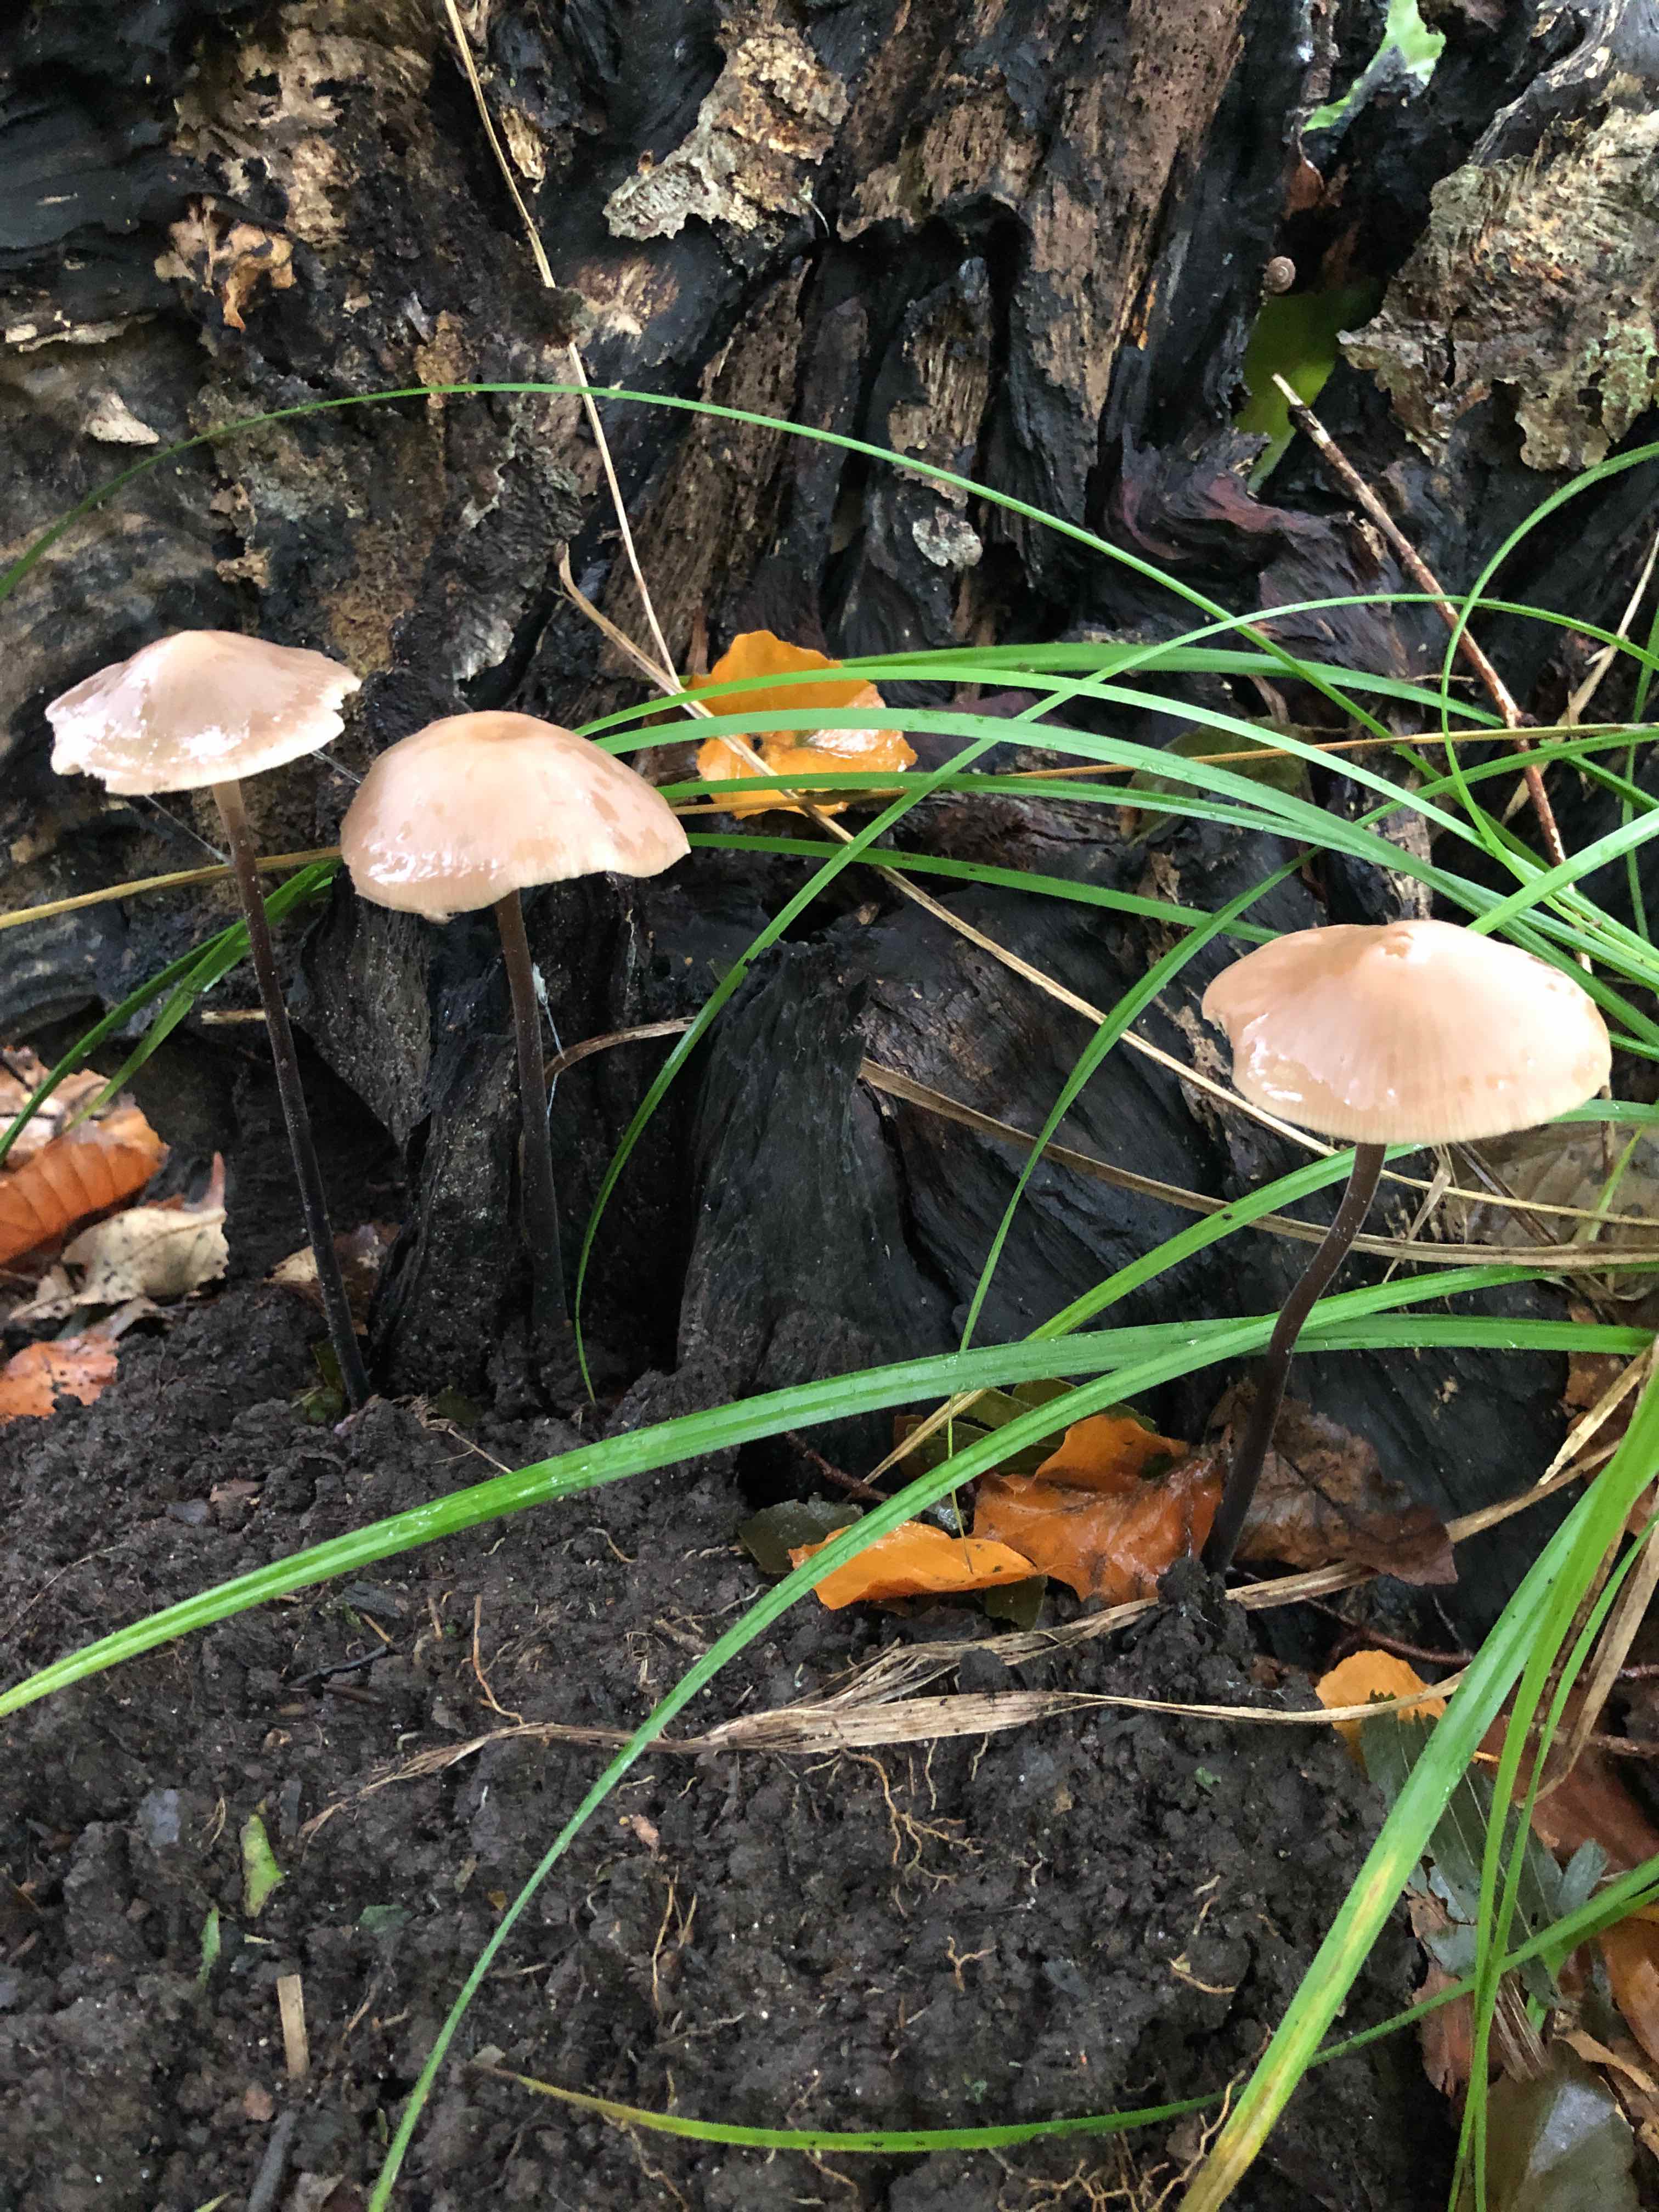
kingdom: Fungi
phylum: Basidiomycota
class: Agaricomycetes
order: Agaricales
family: Omphalotaceae
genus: Mycetinis
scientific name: Mycetinis alliaceus
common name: stor løghat
